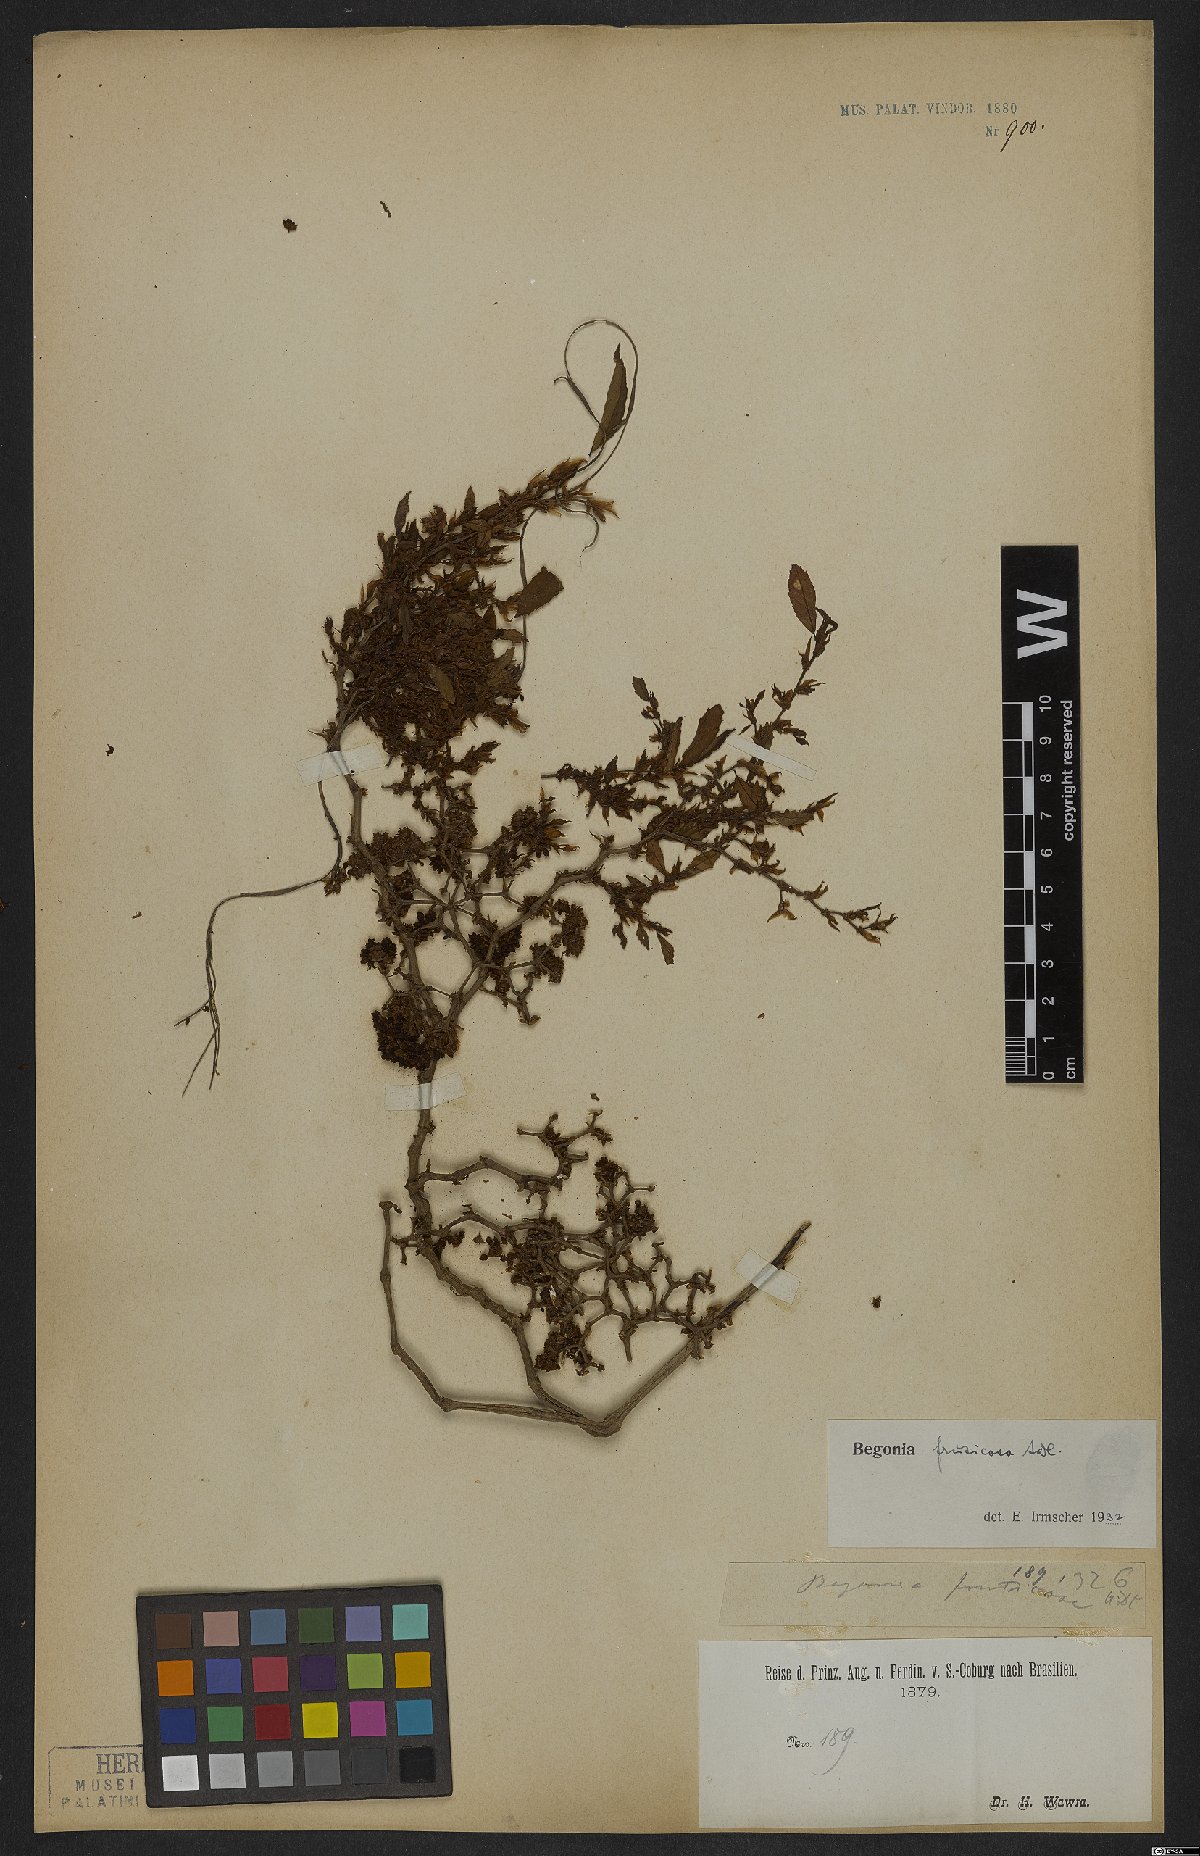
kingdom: Plantae
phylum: Tracheophyta
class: Magnoliopsida
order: Cucurbitales
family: Begoniaceae
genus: Begonia
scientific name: Begonia fruticosa
